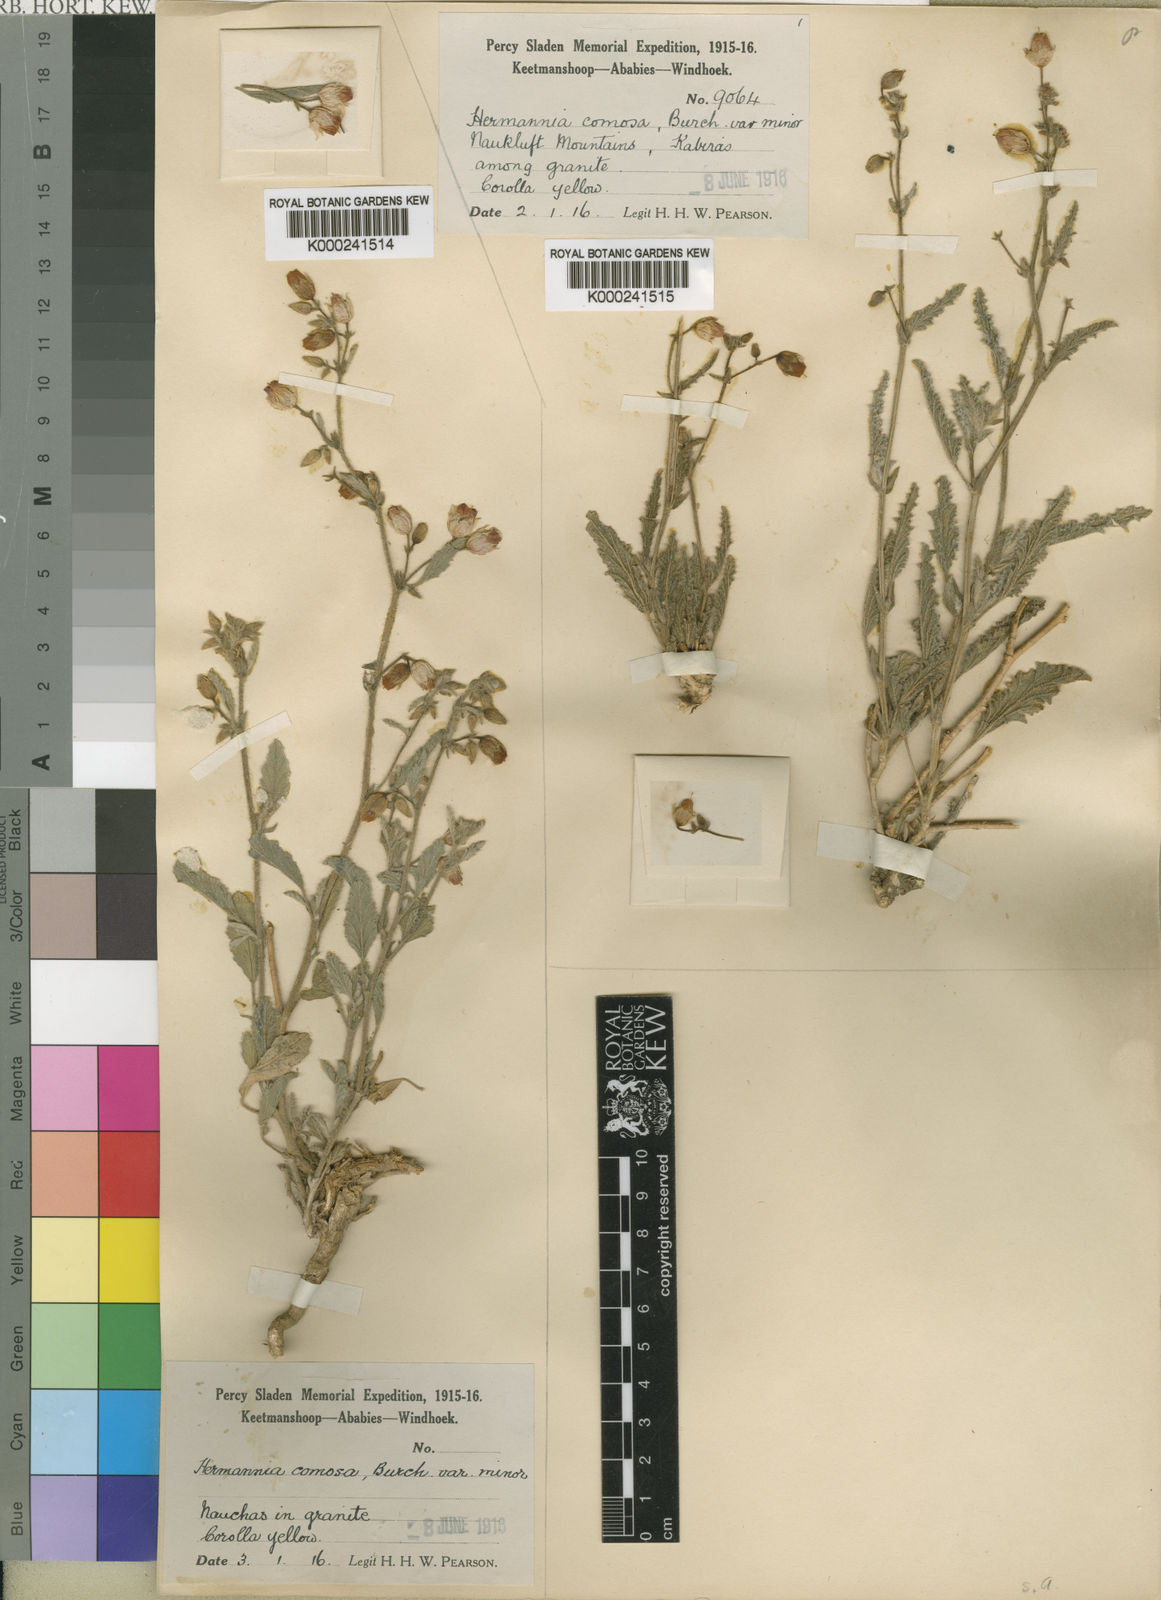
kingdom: Plantae
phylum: Tracheophyta
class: Magnoliopsida
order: Malvales
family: Malvaceae
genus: Hermannia
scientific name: Hermannia comosa
